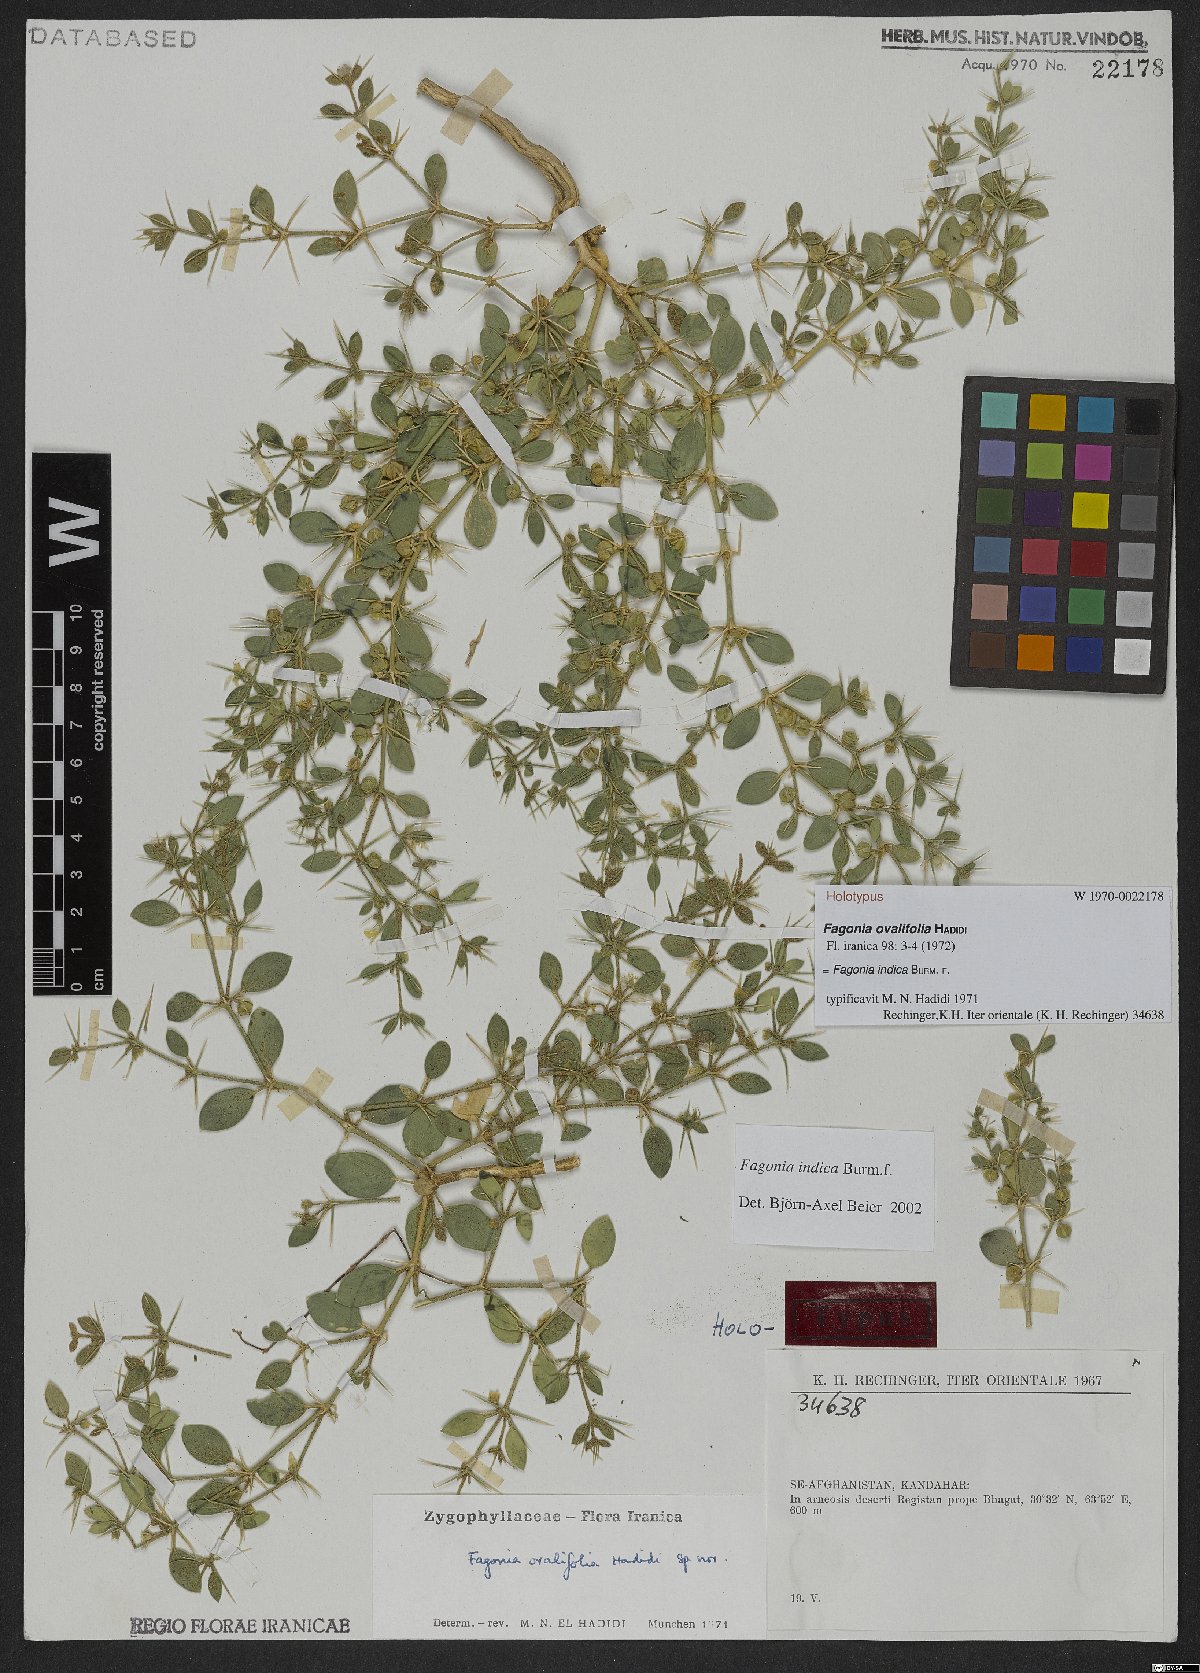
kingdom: Plantae
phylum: Tracheophyta
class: Magnoliopsida
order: Zygophyllales
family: Zygophyllaceae
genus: Fagonia
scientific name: Fagonia indica
